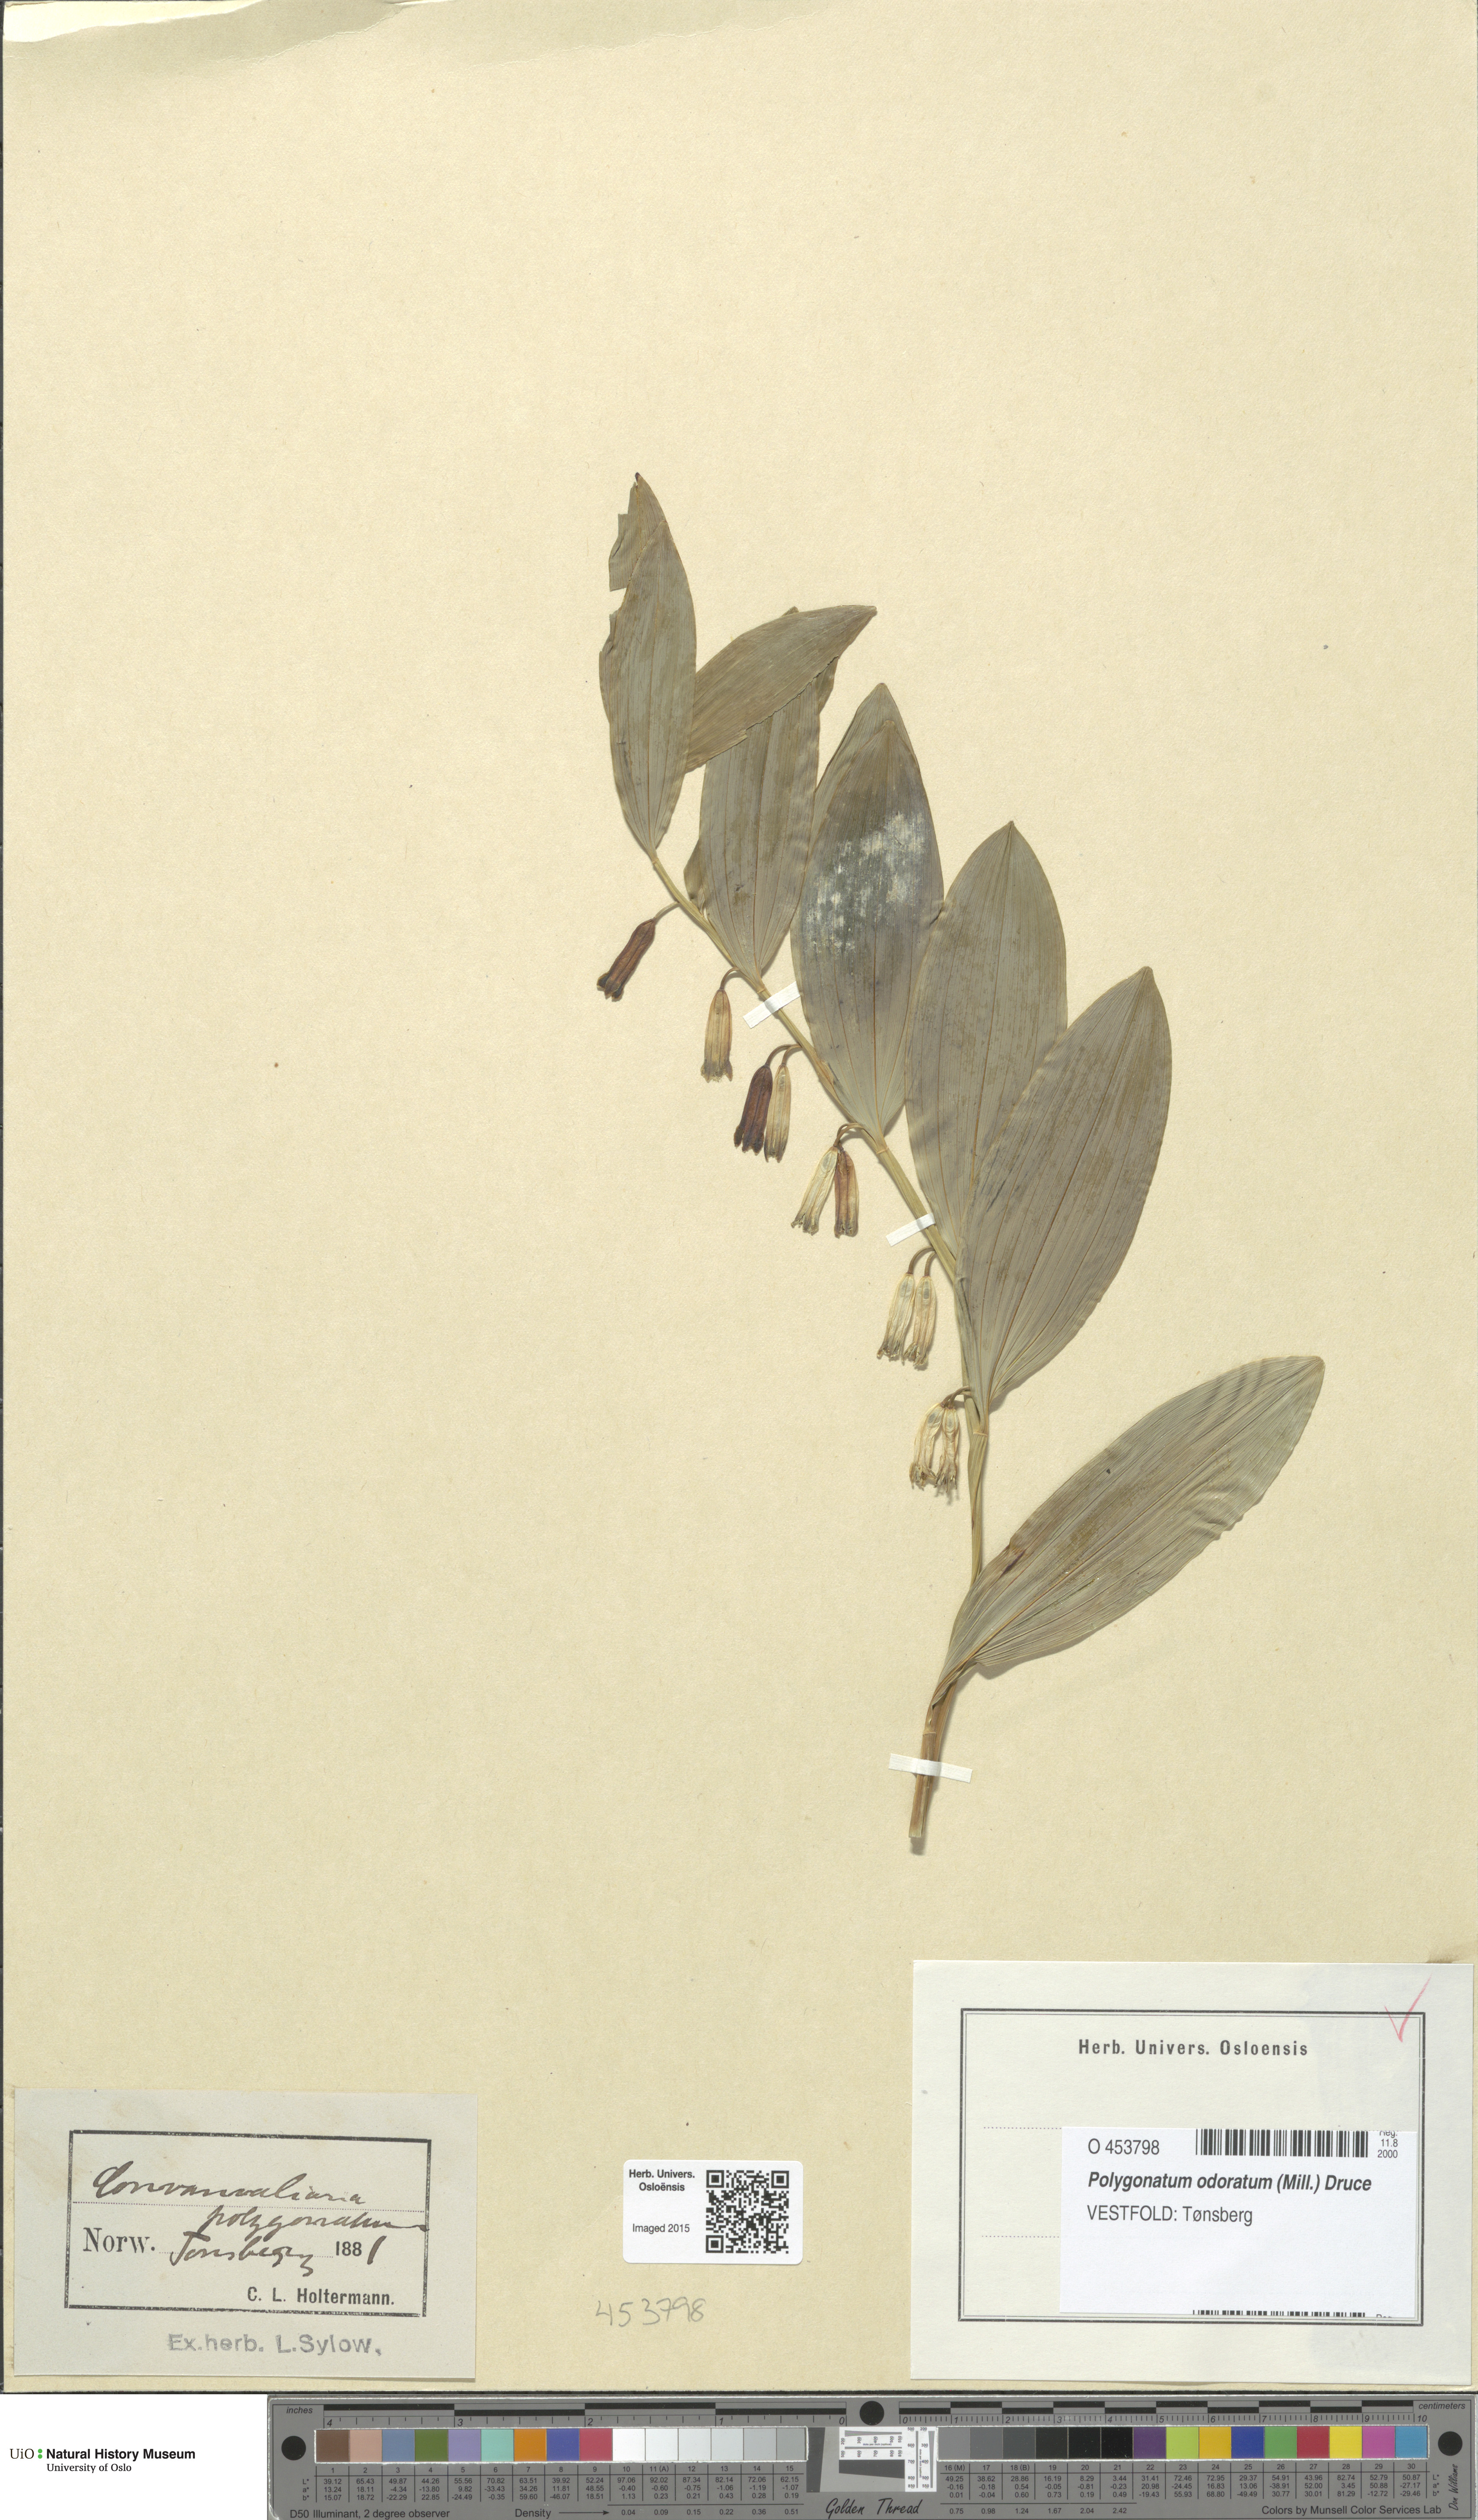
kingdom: Plantae
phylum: Tracheophyta
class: Liliopsida
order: Asparagales
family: Asparagaceae
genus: Polygonatum
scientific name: Polygonatum odoratum
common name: Angular solomon's-seal
